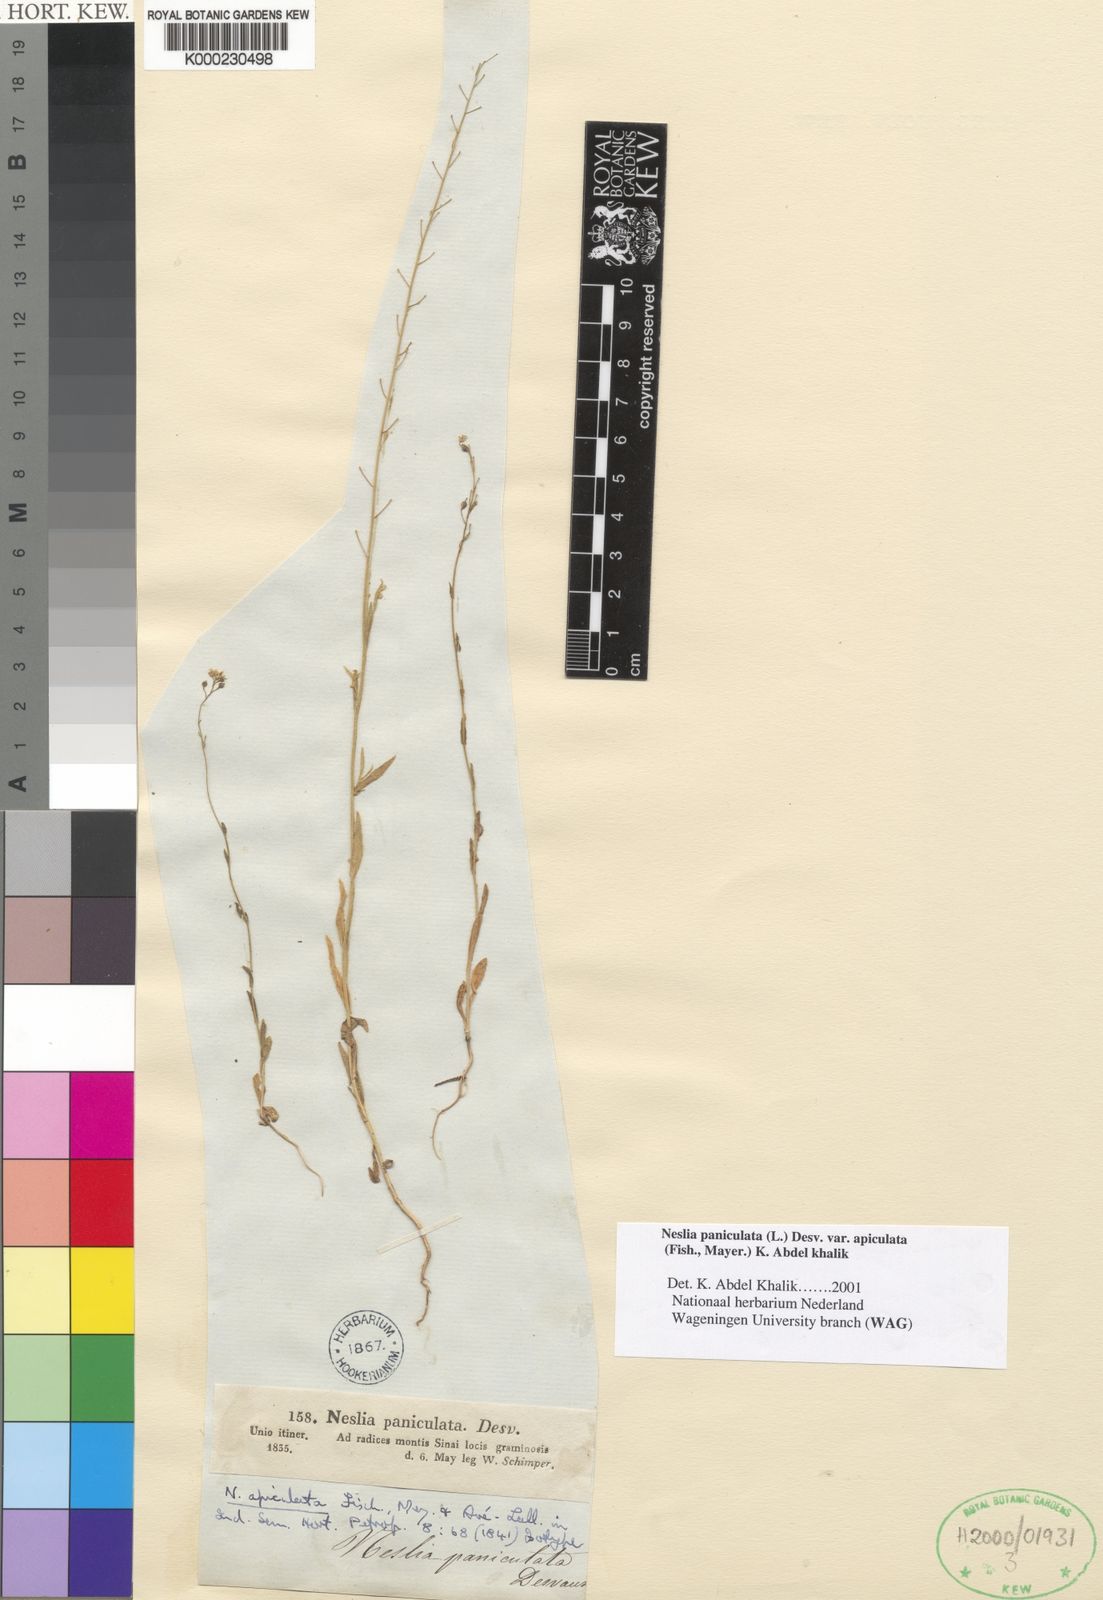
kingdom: Plantae
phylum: Tracheophyta
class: Magnoliopsida
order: Brassicales
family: Brassicaceae
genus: Neslia
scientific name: Neslia
